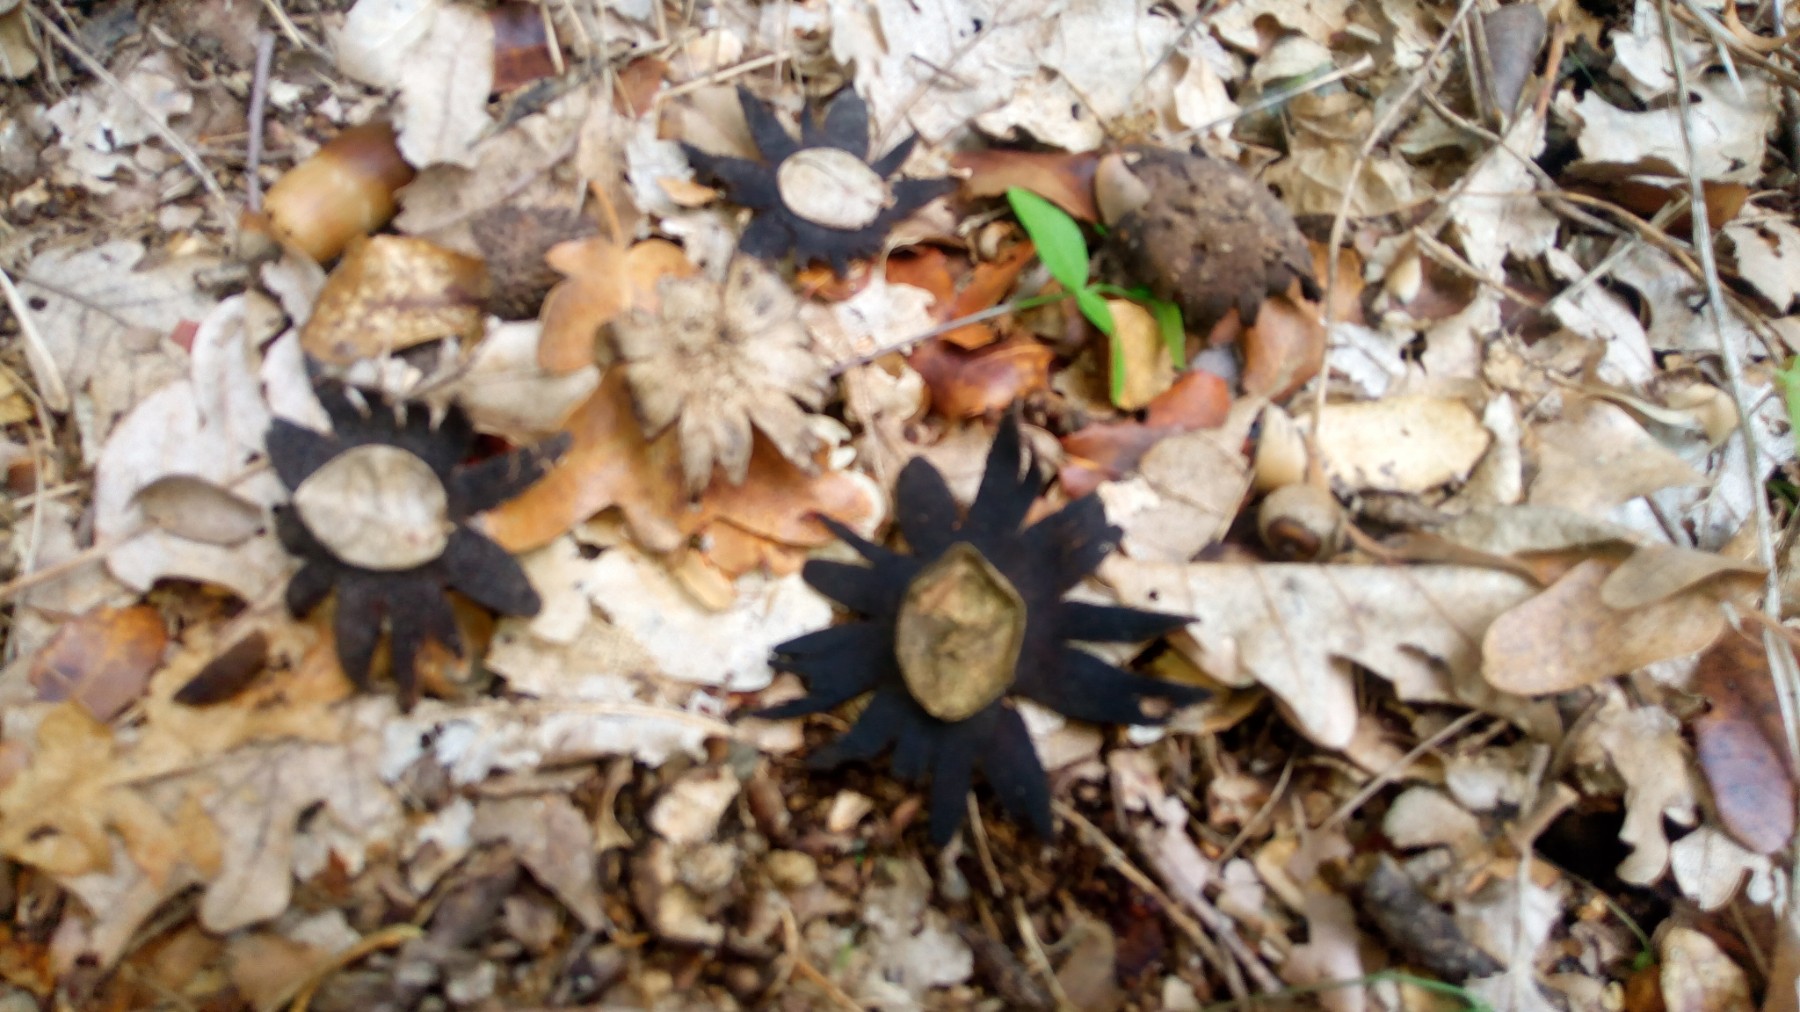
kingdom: Fungi
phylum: Basidiomycota
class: Agaricomycetes
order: Boletales
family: Diplocystidiaceae
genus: Astraeus
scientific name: Astraeus
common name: hygrometerstjerne
